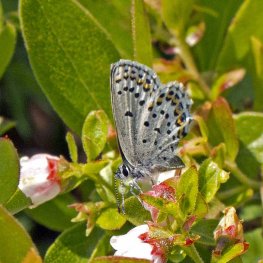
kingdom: Animalia
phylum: Arthropoda
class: Insecta
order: Lepidoptera
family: Lycaenidae
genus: Lycaeides
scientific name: Lycaeides idas
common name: Northern Blue
